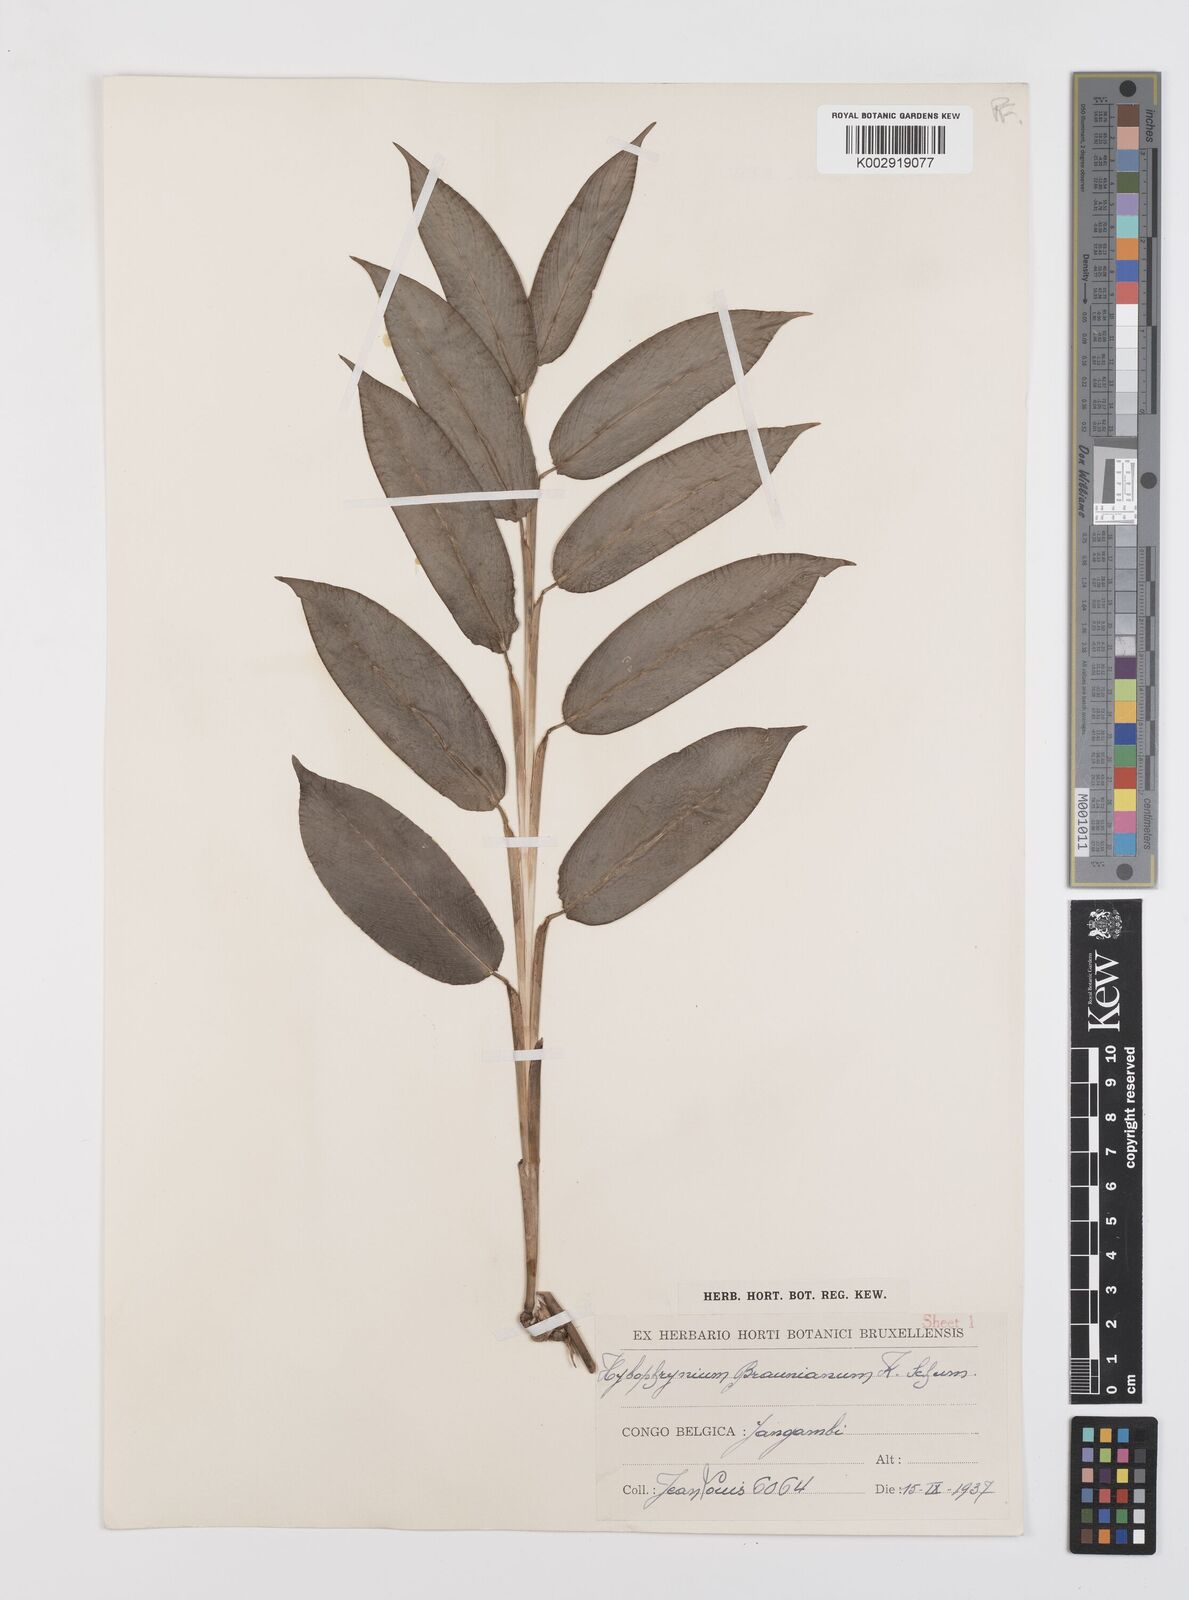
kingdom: Plantae
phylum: Tracheophyta
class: Liliopsida
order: Zingiberales
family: Marantaceae
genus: Trachyphrynium
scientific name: Trachyphrynium braunianum
